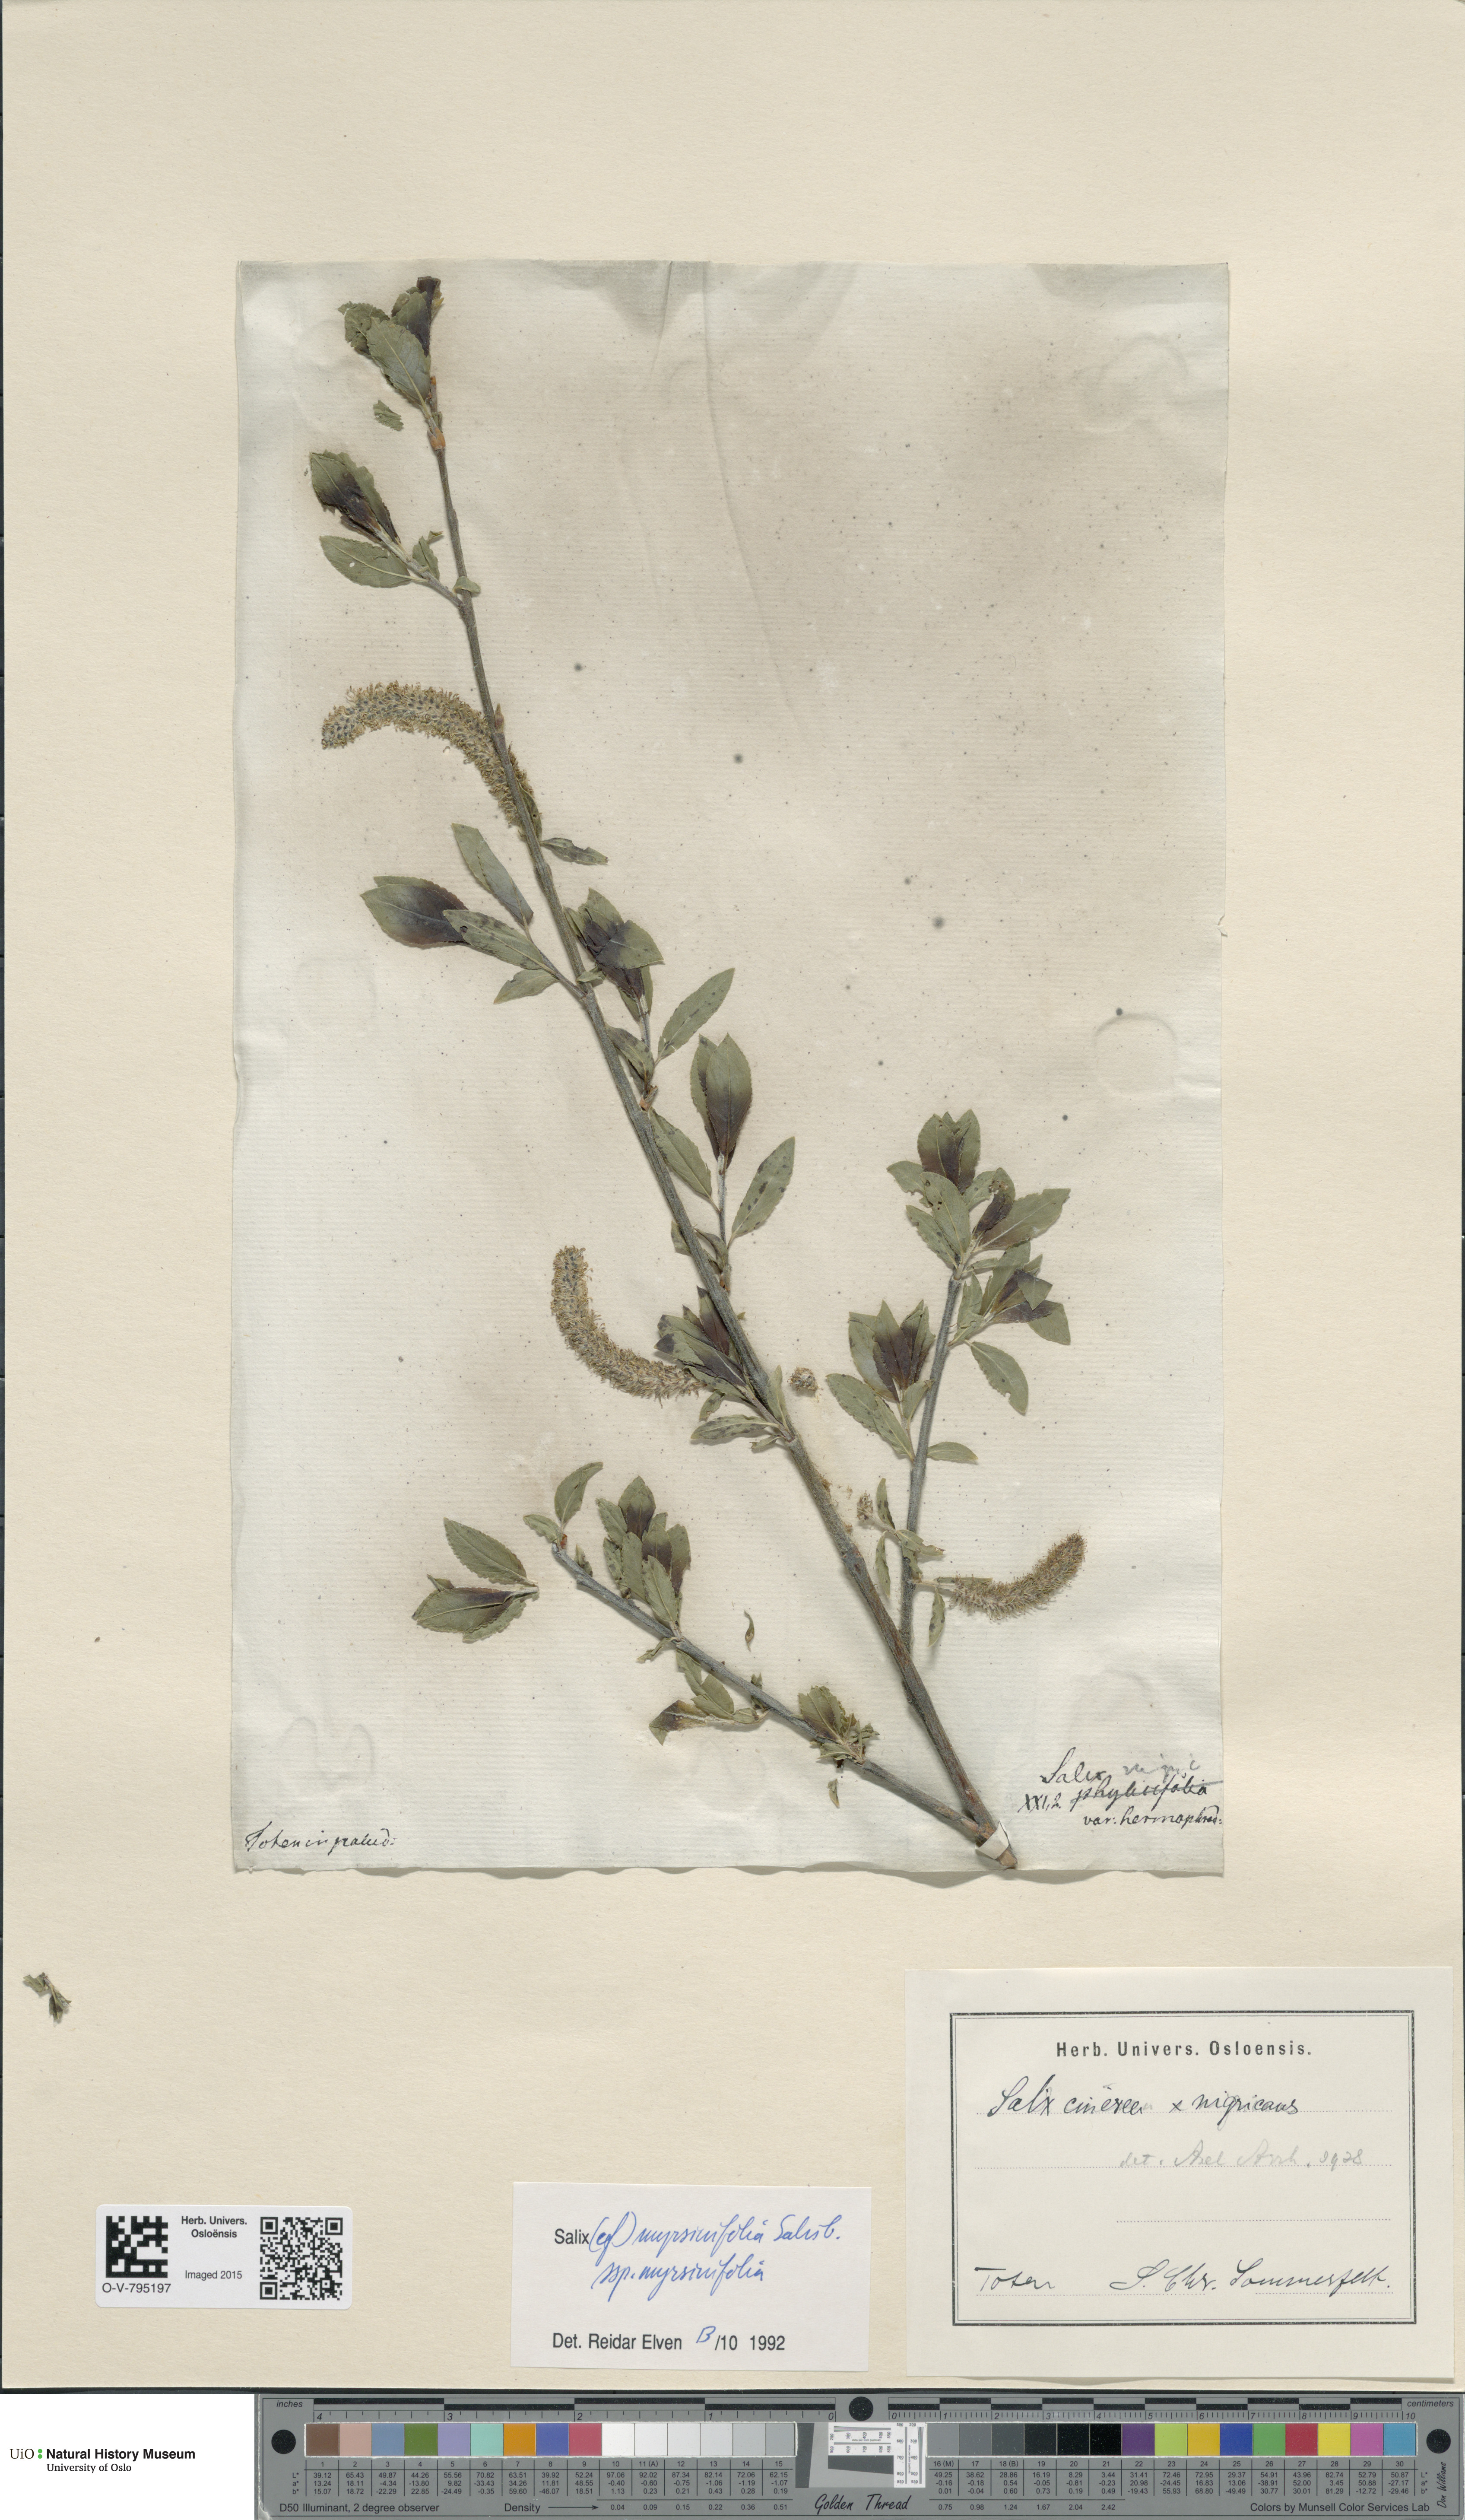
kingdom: Plantae
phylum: Tracheophyta
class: Magnoliopsida
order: Malpighiales
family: Salicaceae
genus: Salix
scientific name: Salix myrsinifolia
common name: Dark-leaved willow
